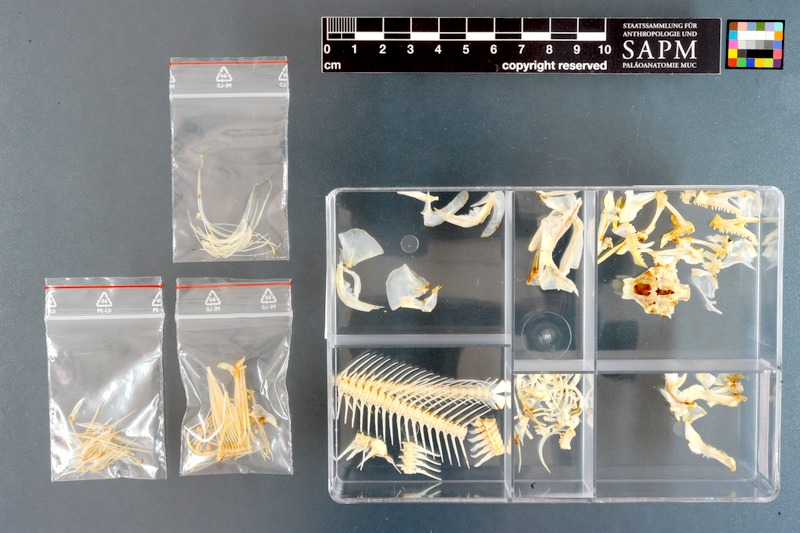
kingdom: Animalia
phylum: Chordata
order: Perciformes
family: Clinidae
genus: Clinus
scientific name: Clinus superciliosus
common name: Super klipfish
